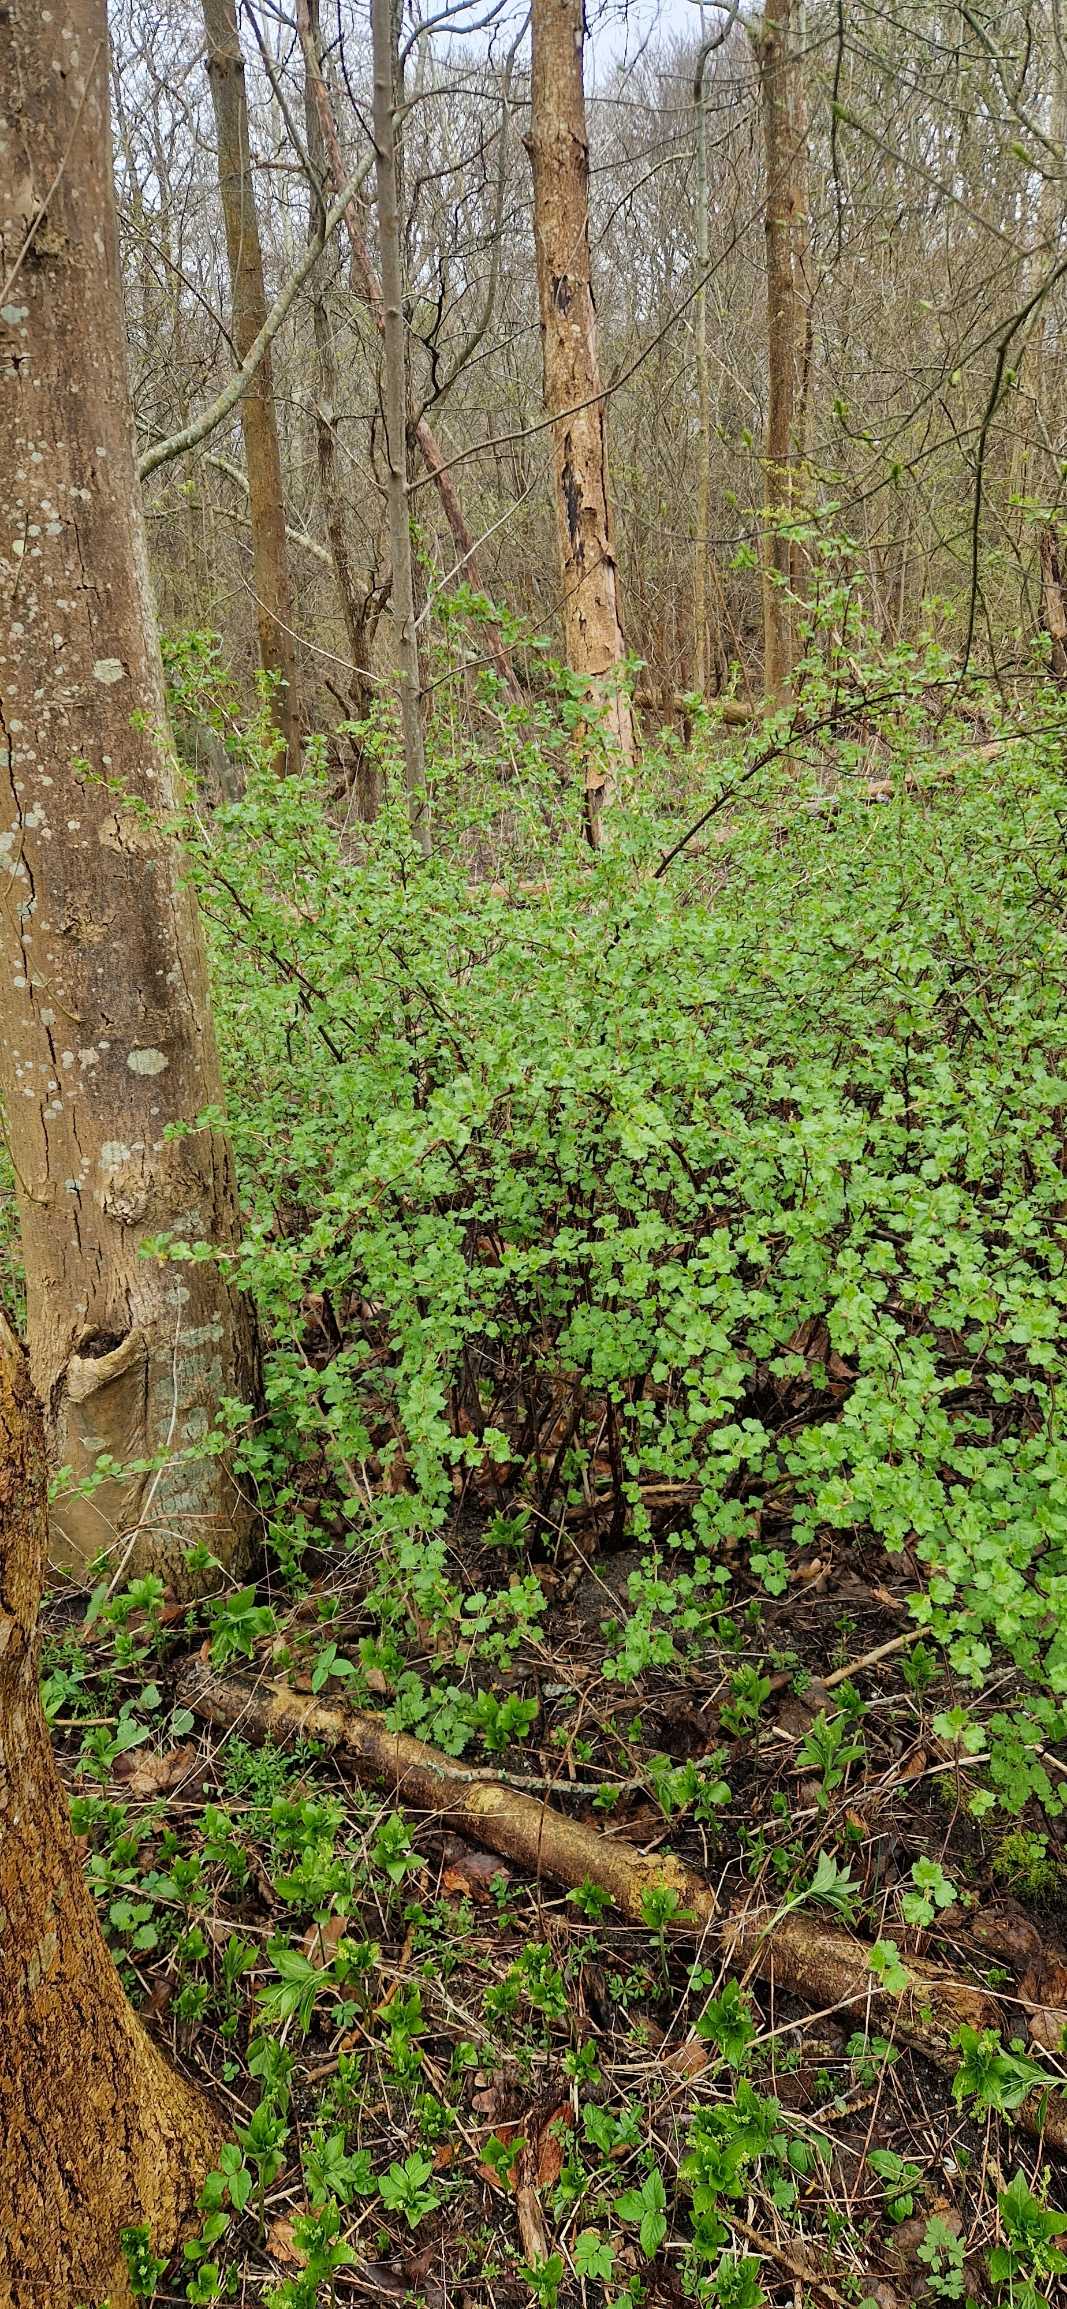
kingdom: Plantae
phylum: Tracheophyta
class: Magnoliopsida
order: Saxifragales
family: Grossulariaceae
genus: Ribes
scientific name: Ribes uva-crispa
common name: Stikkelsbær
